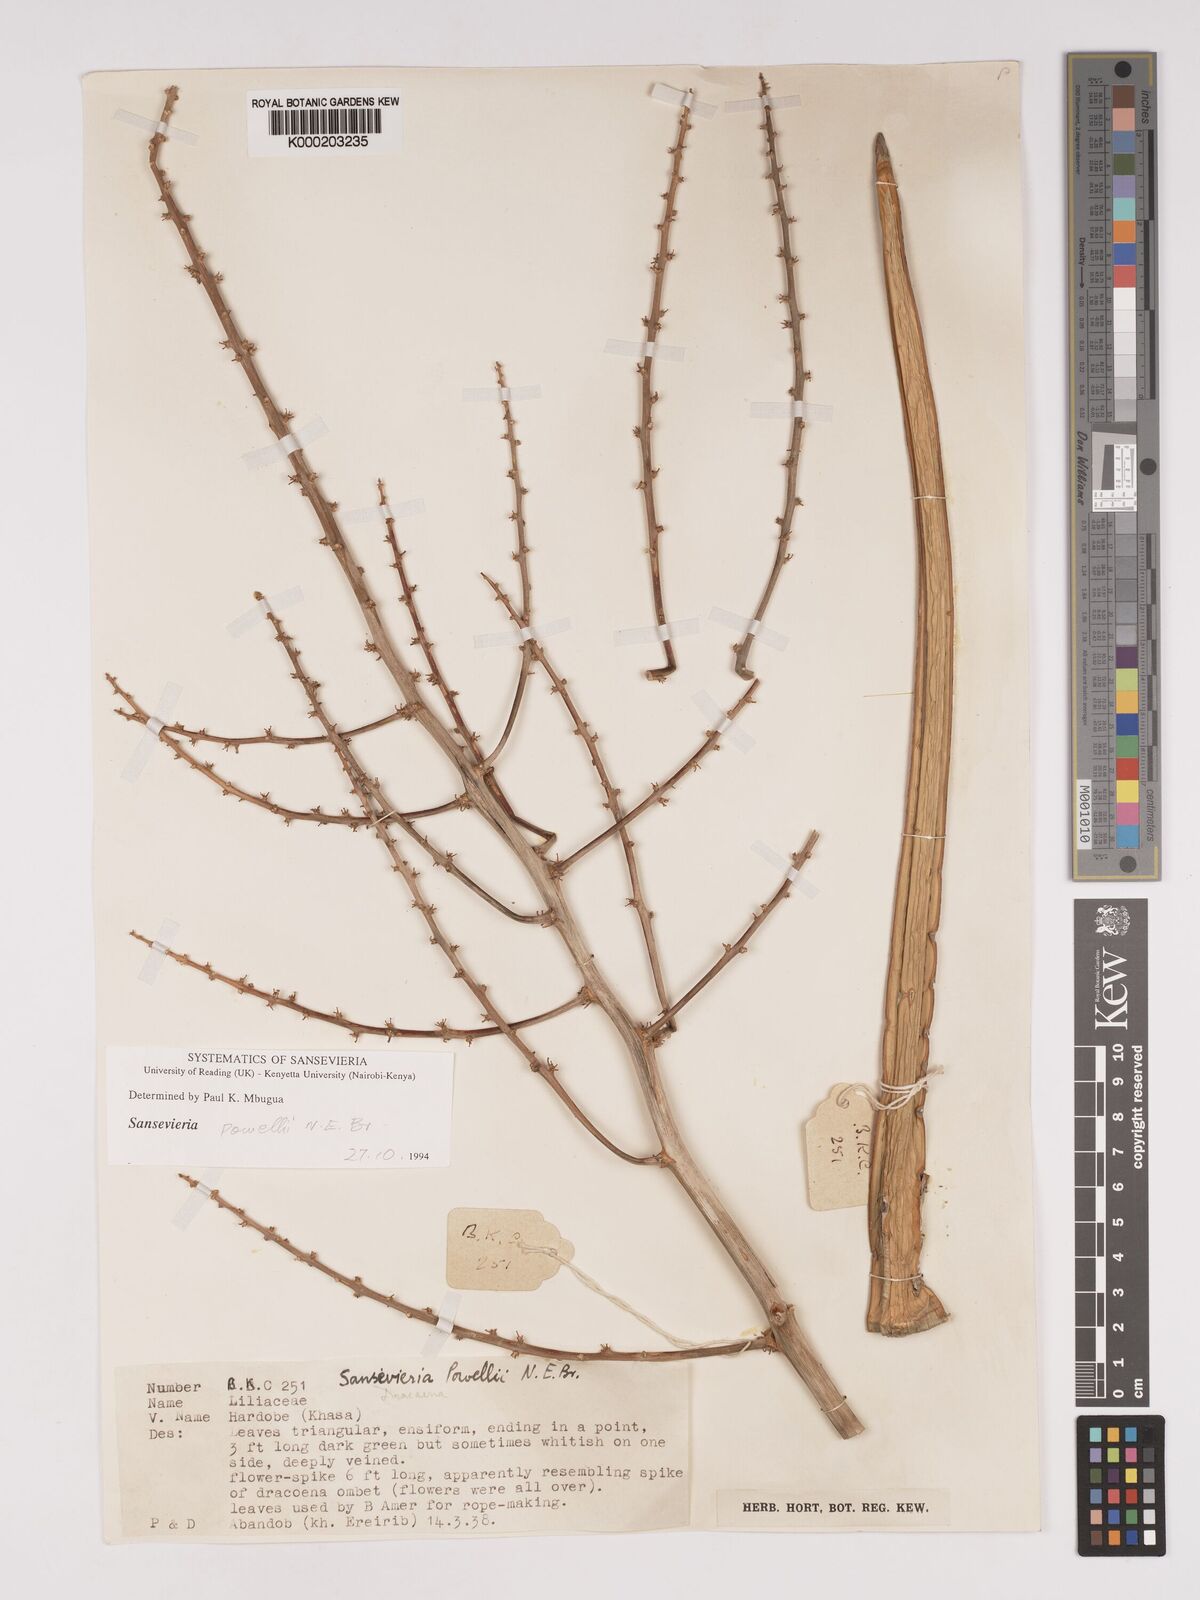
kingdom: Plantae
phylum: Tracheophyta
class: Liliopsida
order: Asparagales
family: Asparagaceae
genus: Dracaena
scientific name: Dracaena powellii
